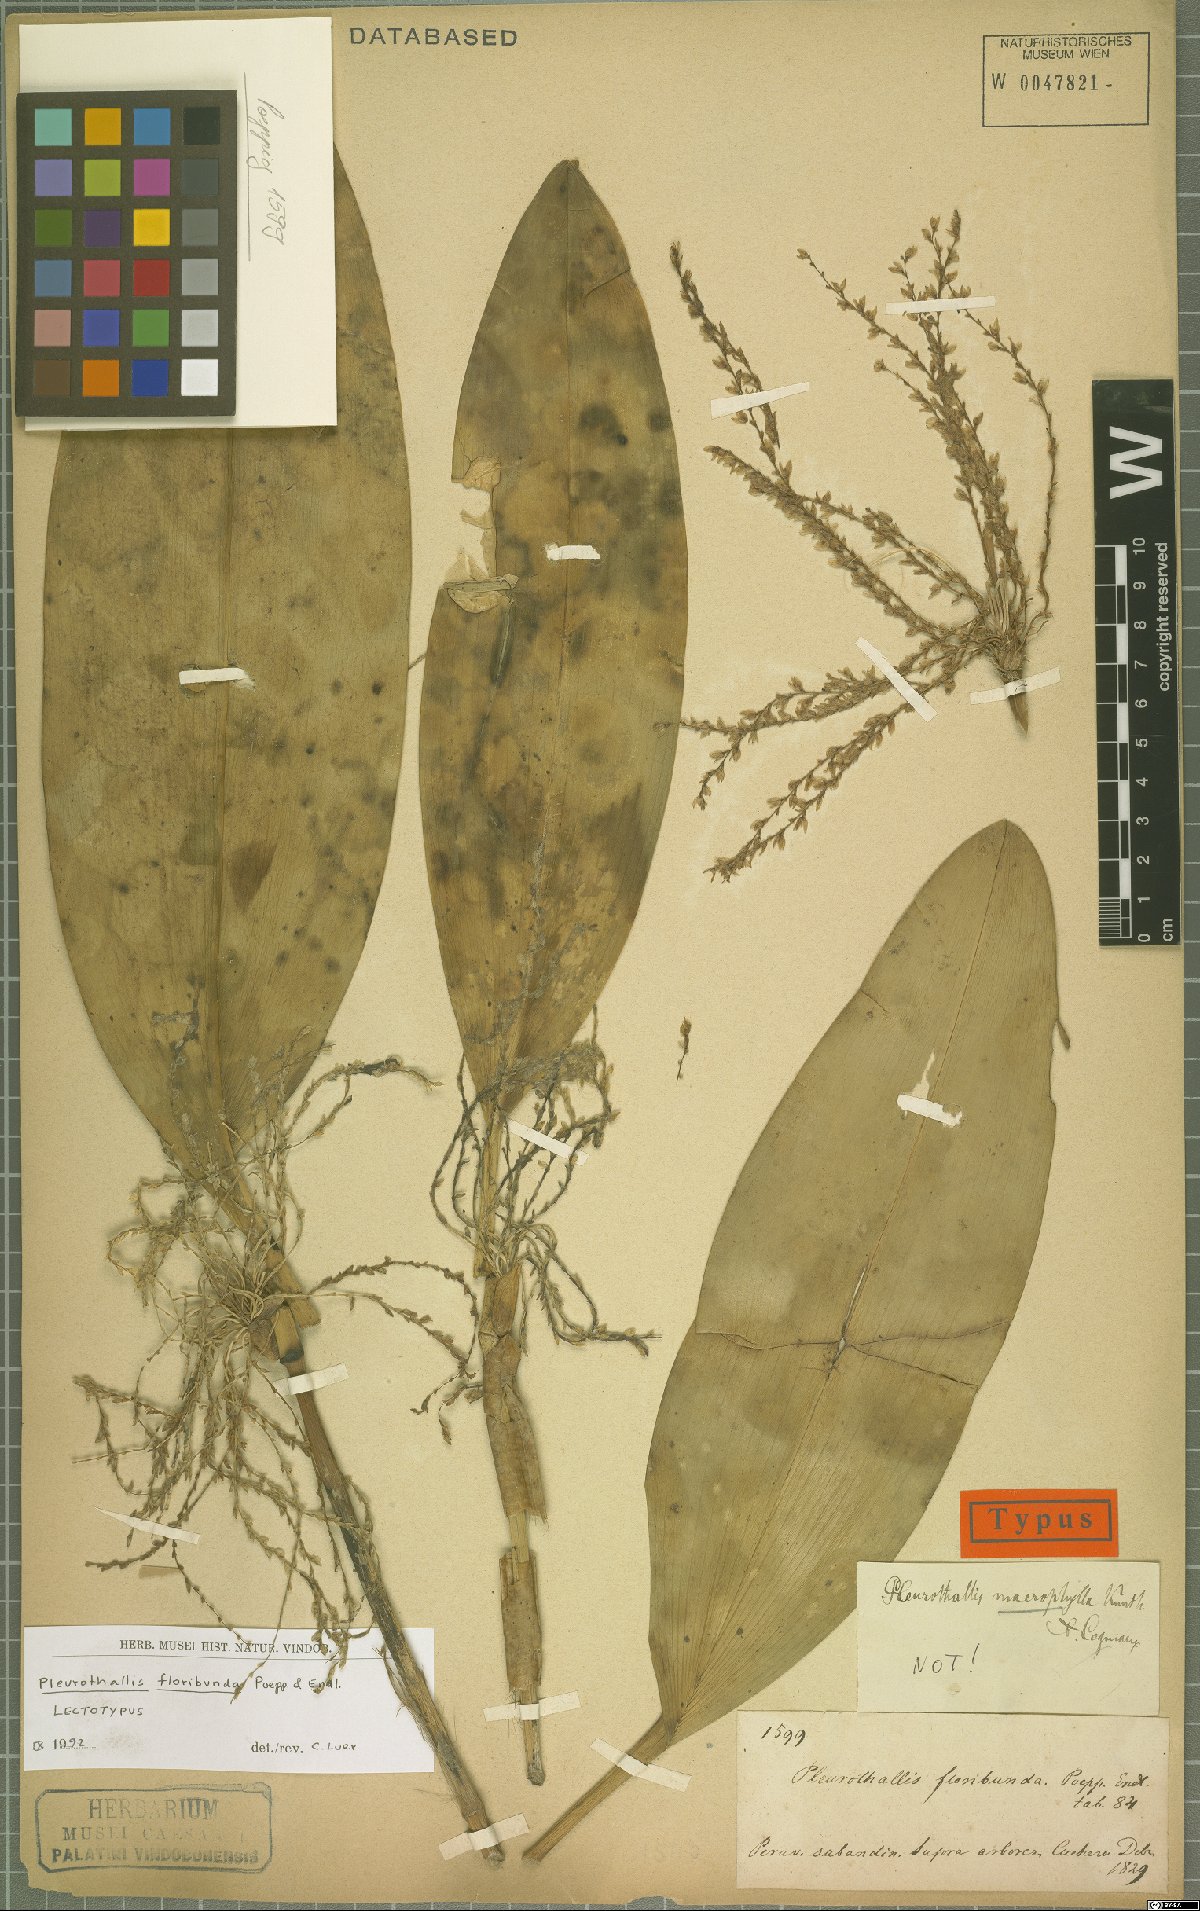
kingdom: Plantae
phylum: Tracheophyta
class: Liliopsida
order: Asparagales
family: Orchidaceae
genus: Stelis
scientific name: Stelis pittieri
